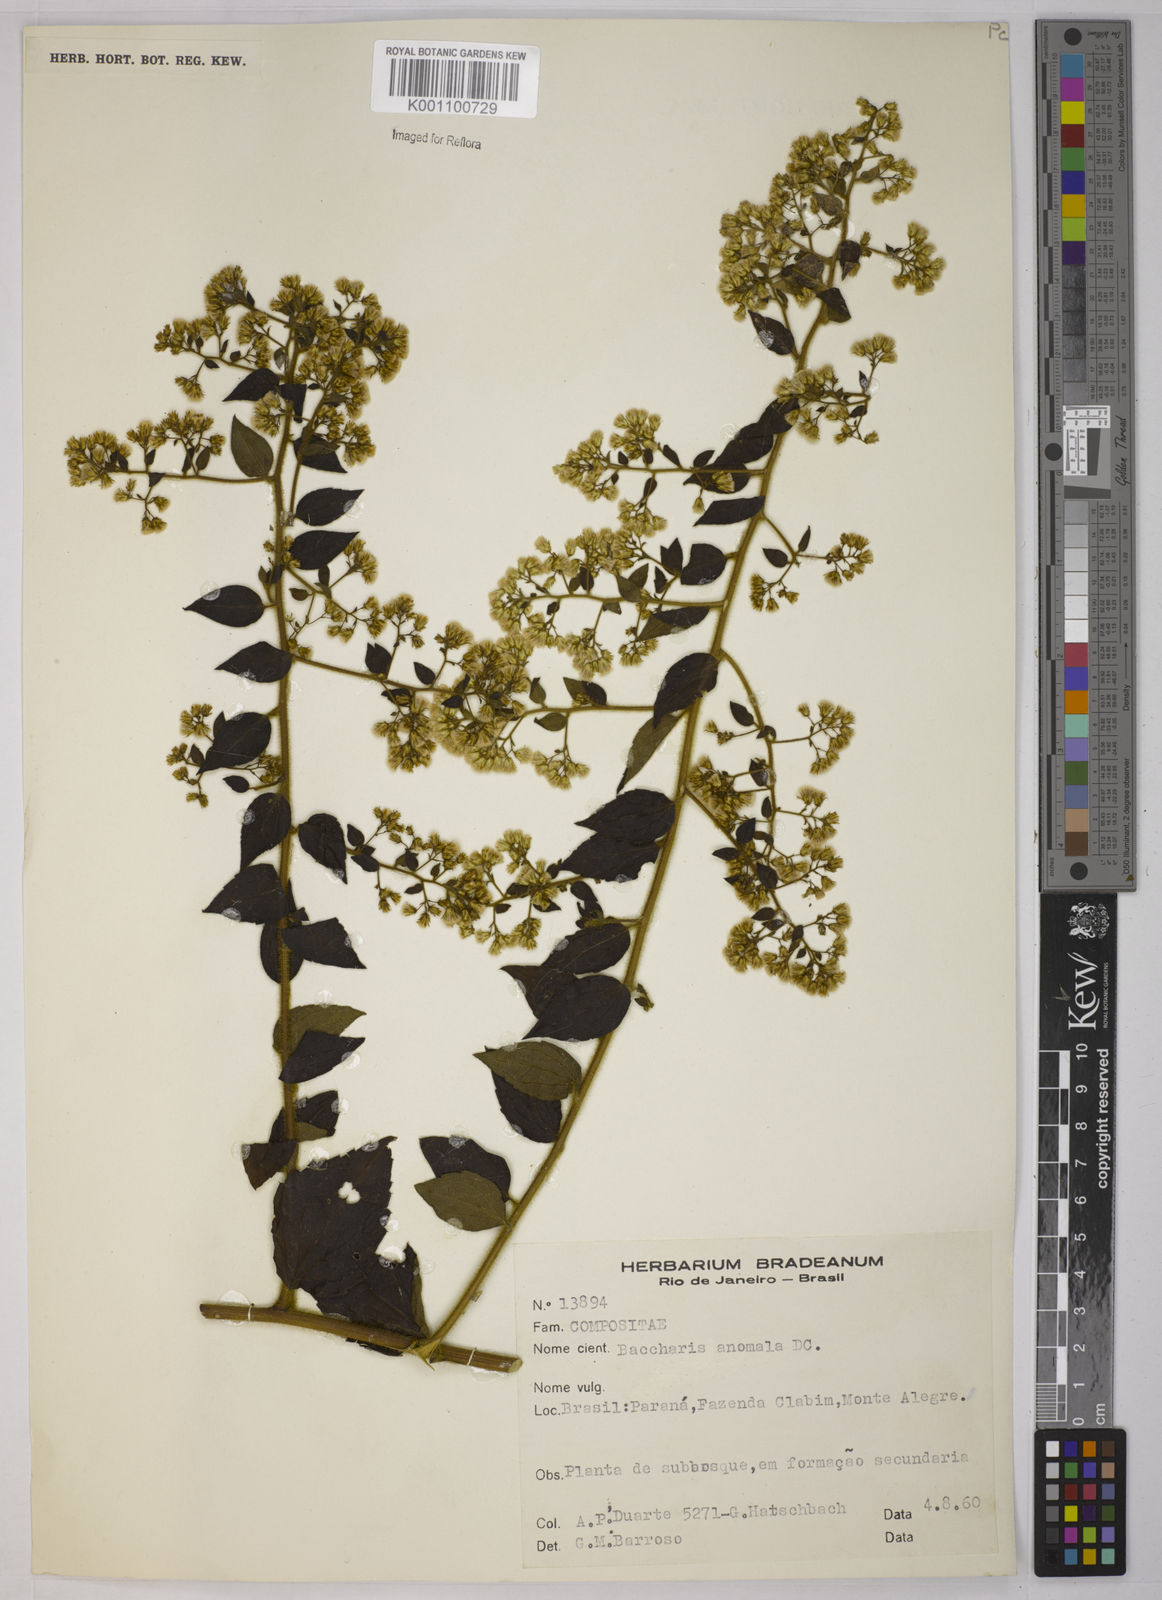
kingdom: Plantae
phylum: Tracheophyta
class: Magnoliopsida
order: Asterales
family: Asteraceae
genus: Baccharis
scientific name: Baccharis anomala
